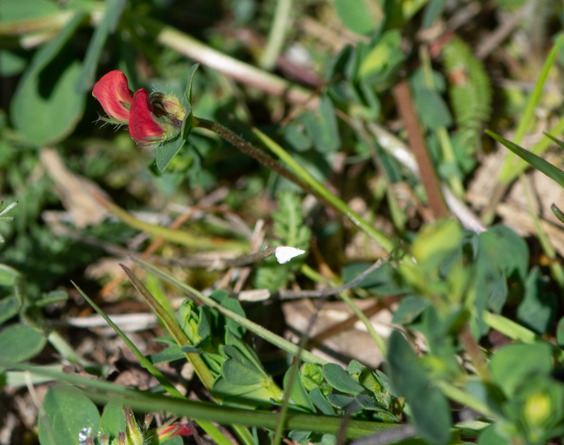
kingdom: Plantae
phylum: Tracheophyta
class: Magnoliopsida
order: Fabales
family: Fabaceae
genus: Lotus
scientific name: Lotus corniculatus
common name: Almindelig kællingetand
